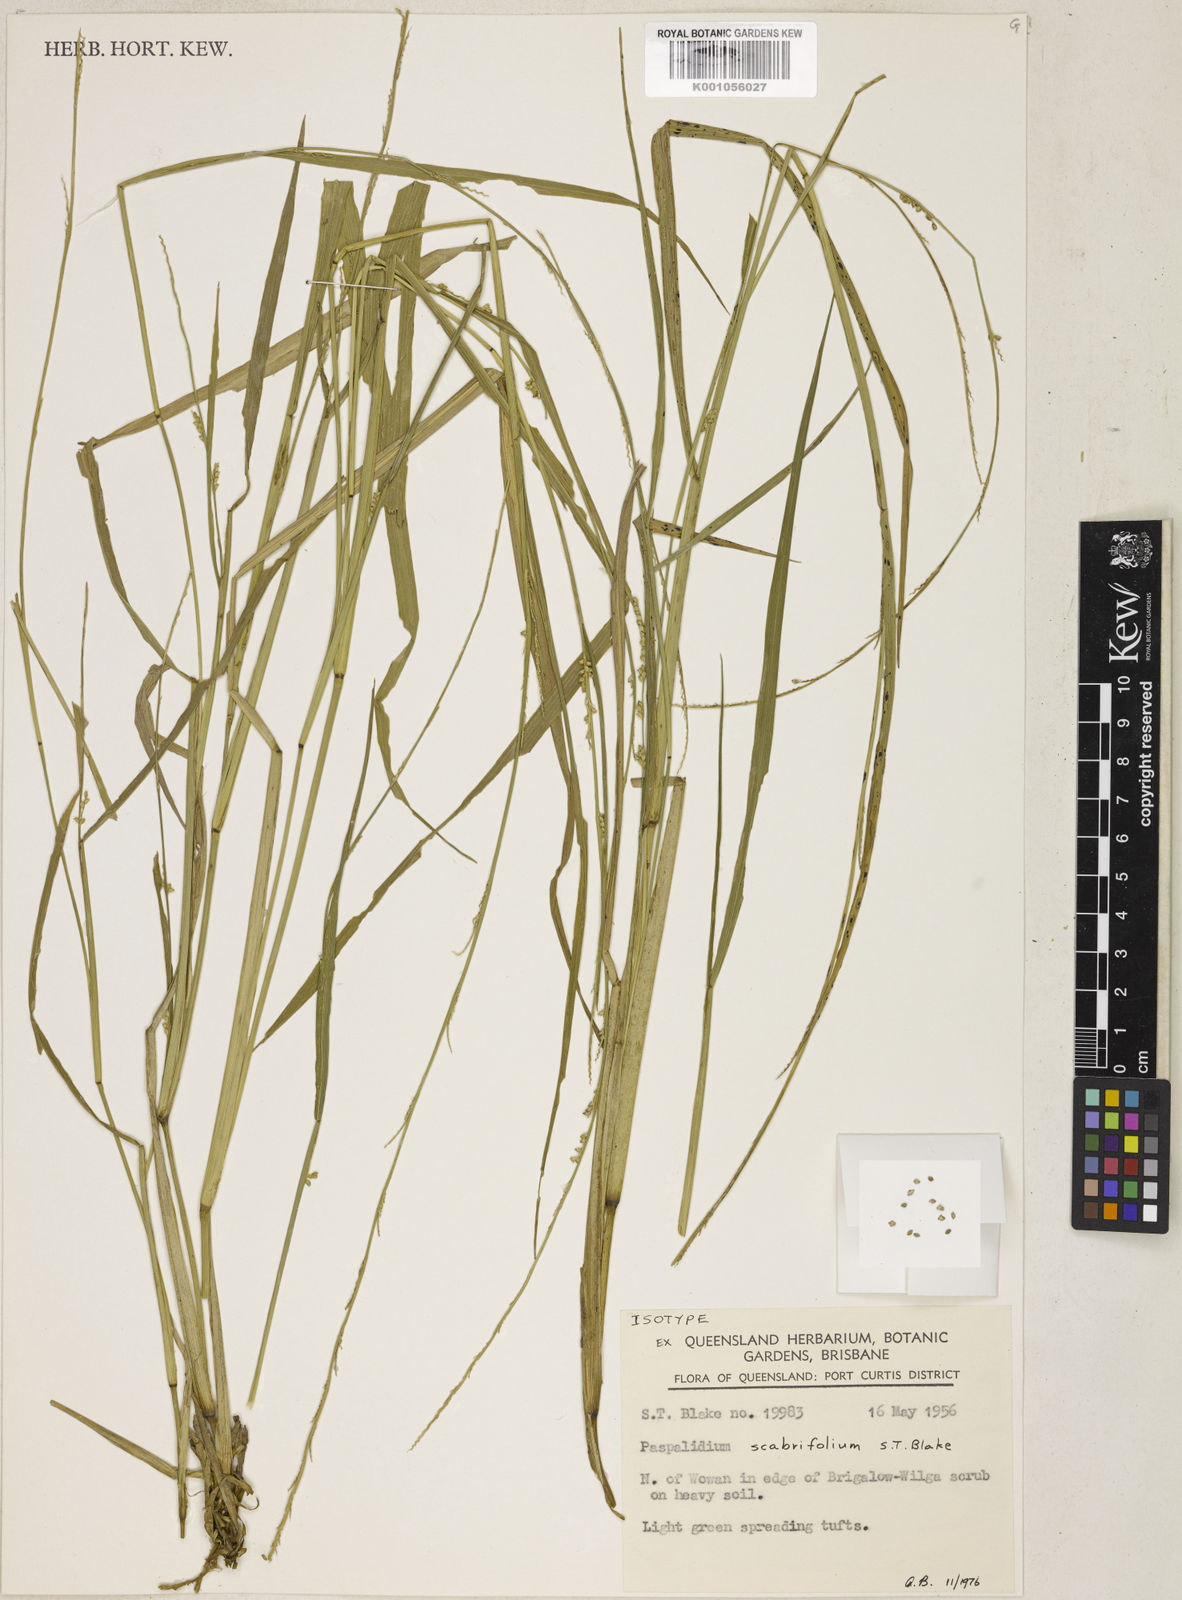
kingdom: Plantae
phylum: Tracheophyta
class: Liliopsida
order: Poales
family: Poaceae
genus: Setaria
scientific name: Setaria distans
